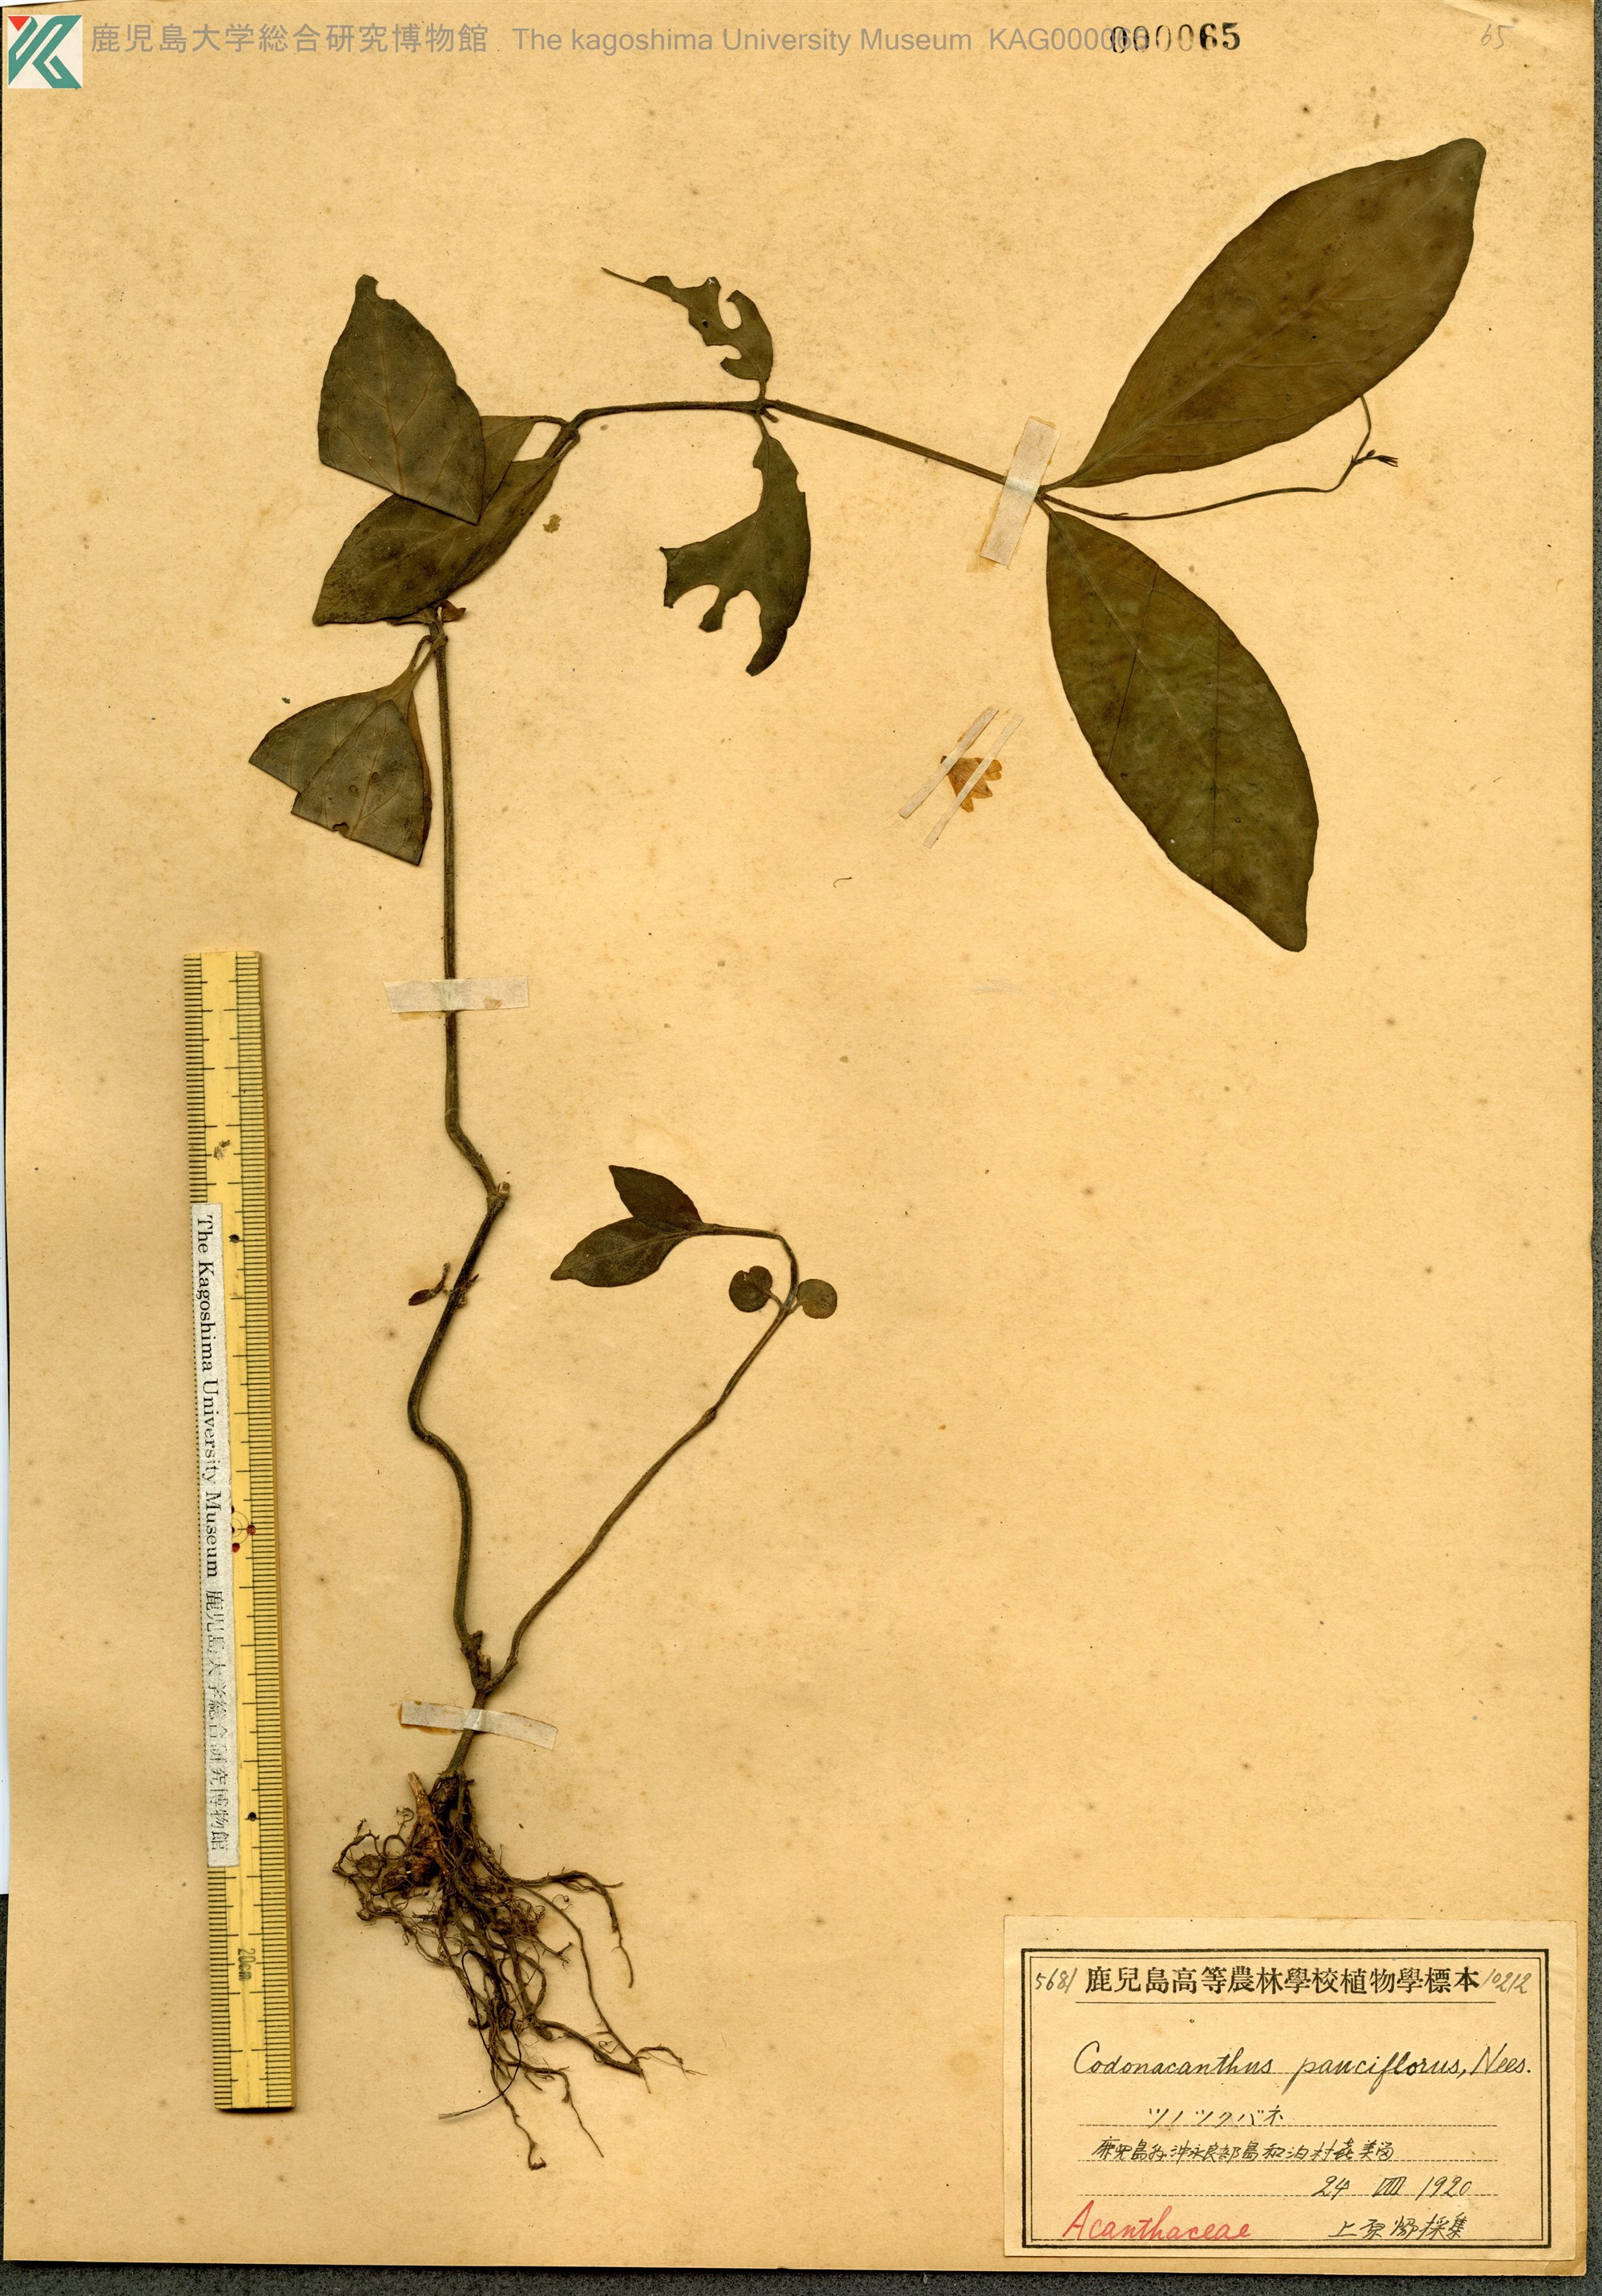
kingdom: Plantae
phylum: Tracheophyta
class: Magnoliopsida
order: Lamiales
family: Acanthaceae
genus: Codonacanthus
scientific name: Codonacanthus pauciflorus
